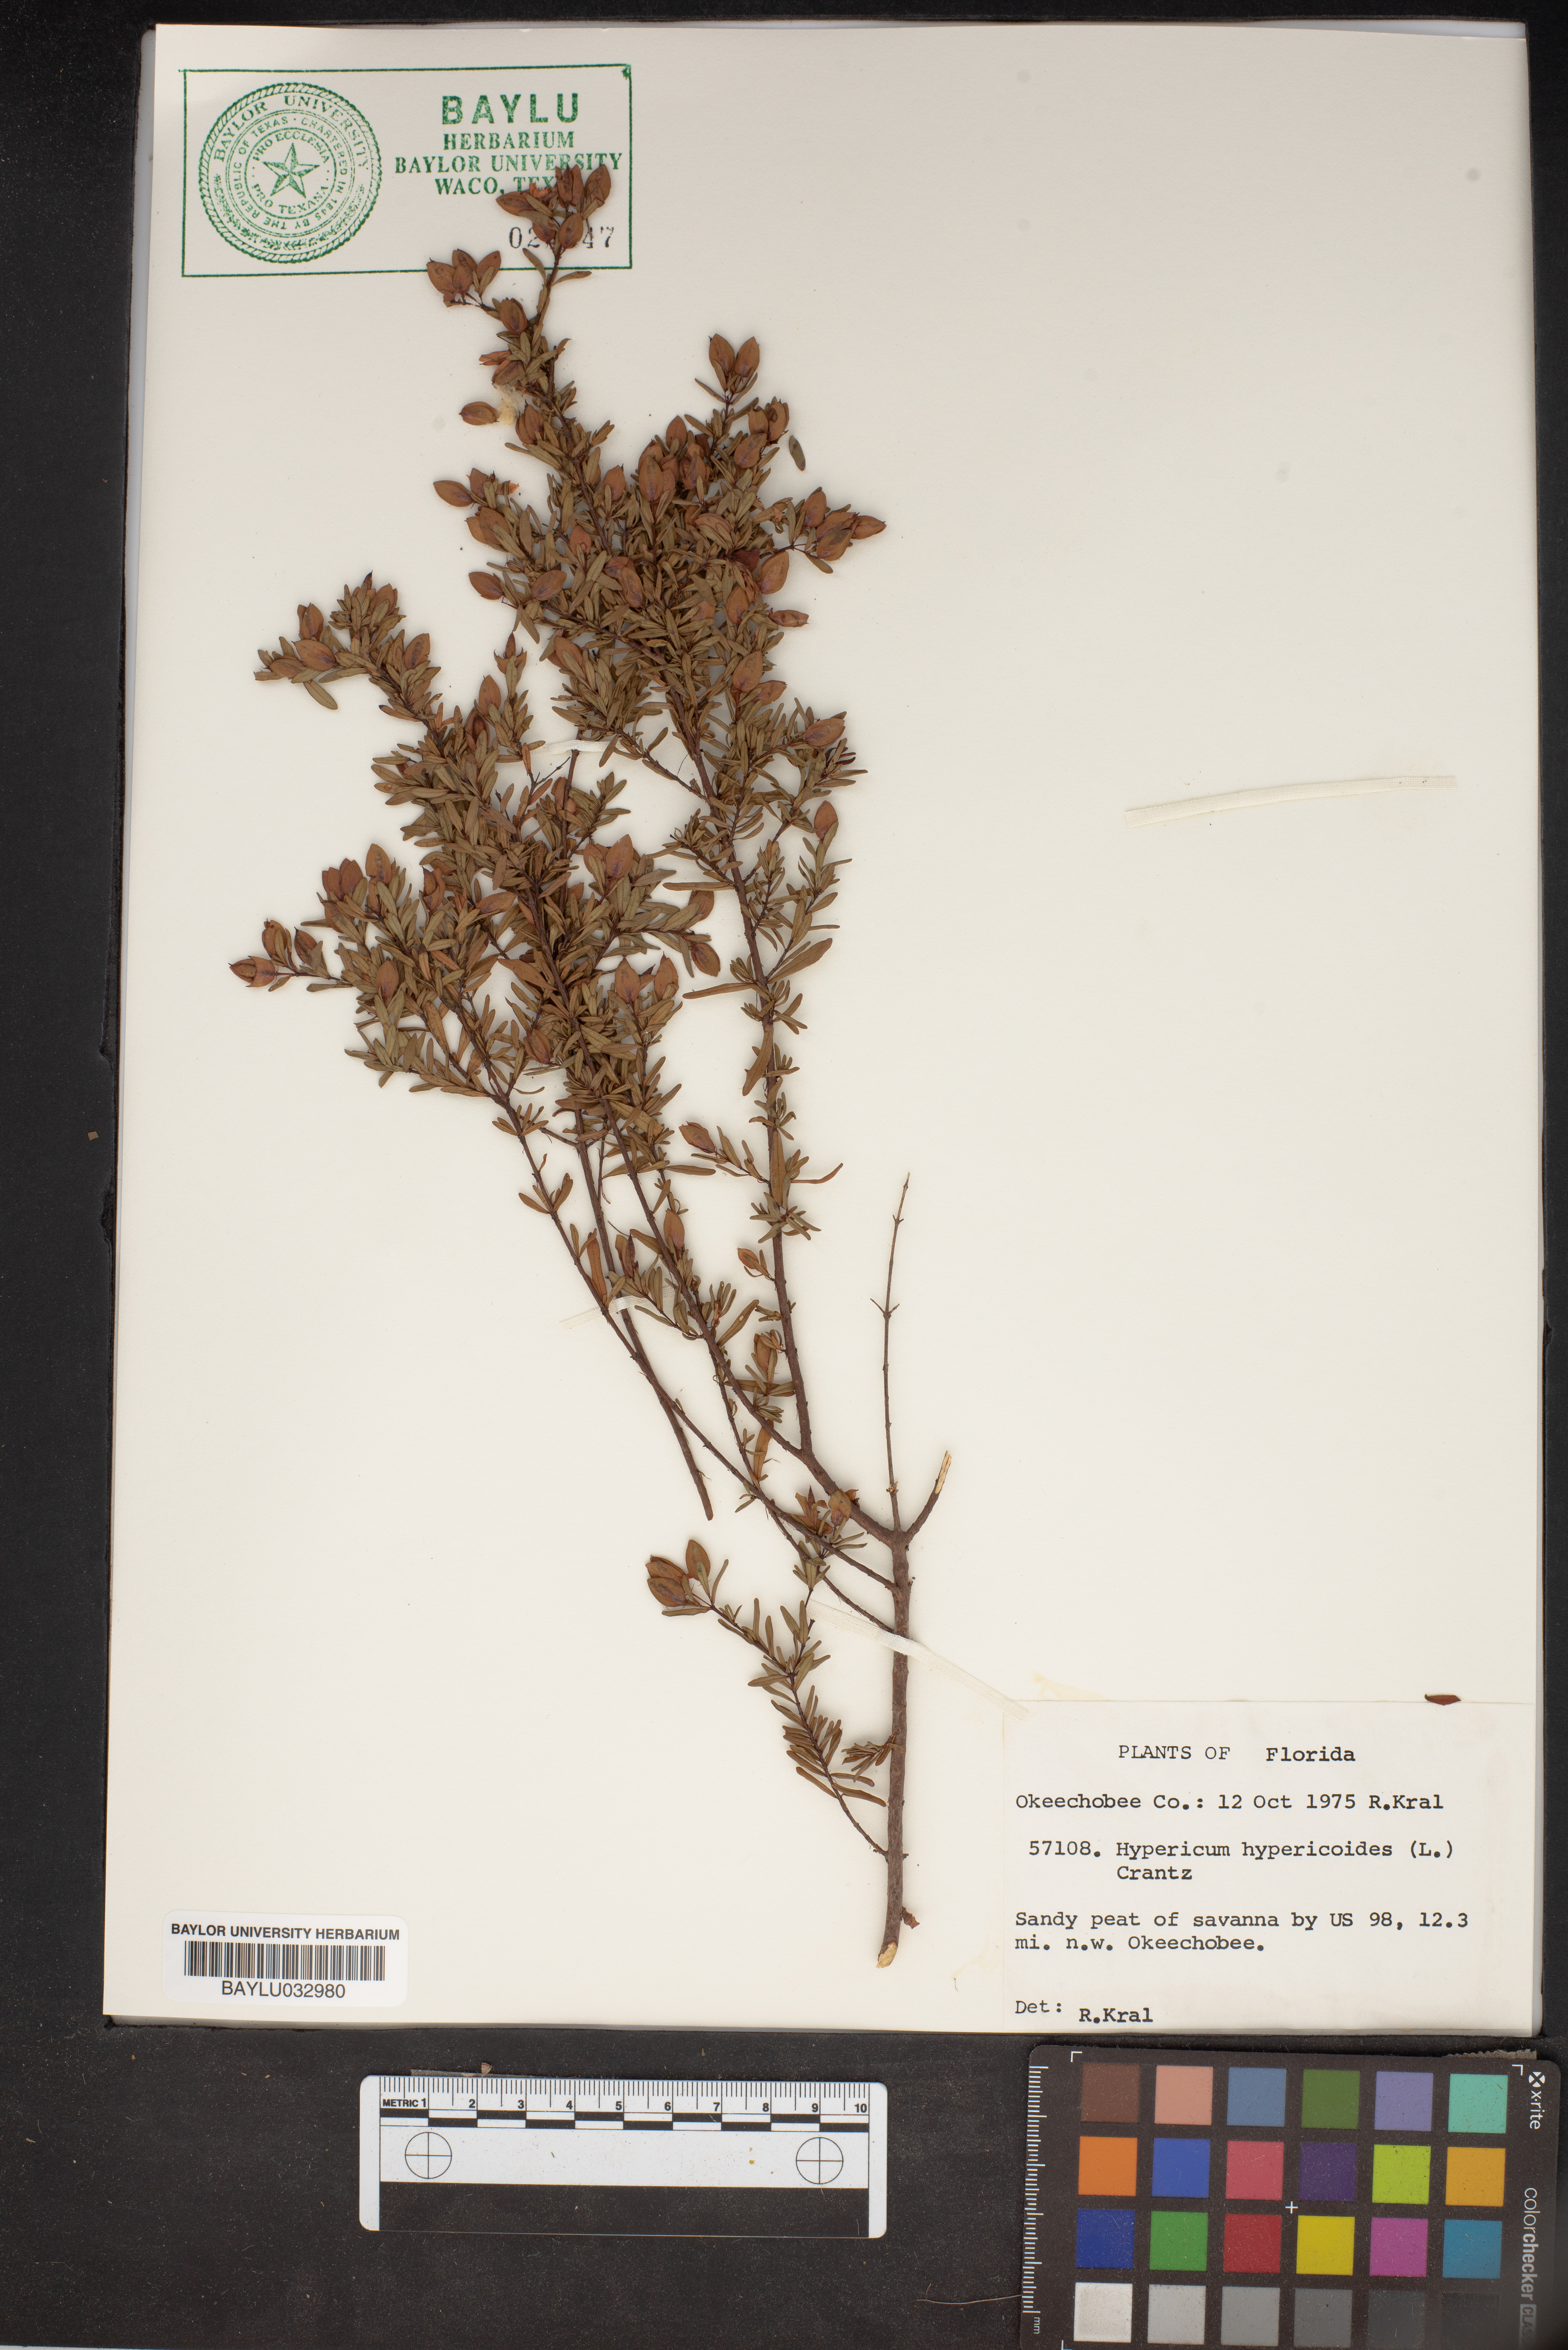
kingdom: Plantae
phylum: Tracheophyta
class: Magnoliopsida
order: Malpighiales
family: Hypericaceae
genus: Hypericum
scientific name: Hypericum hypericoides
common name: St. andrew's cross
